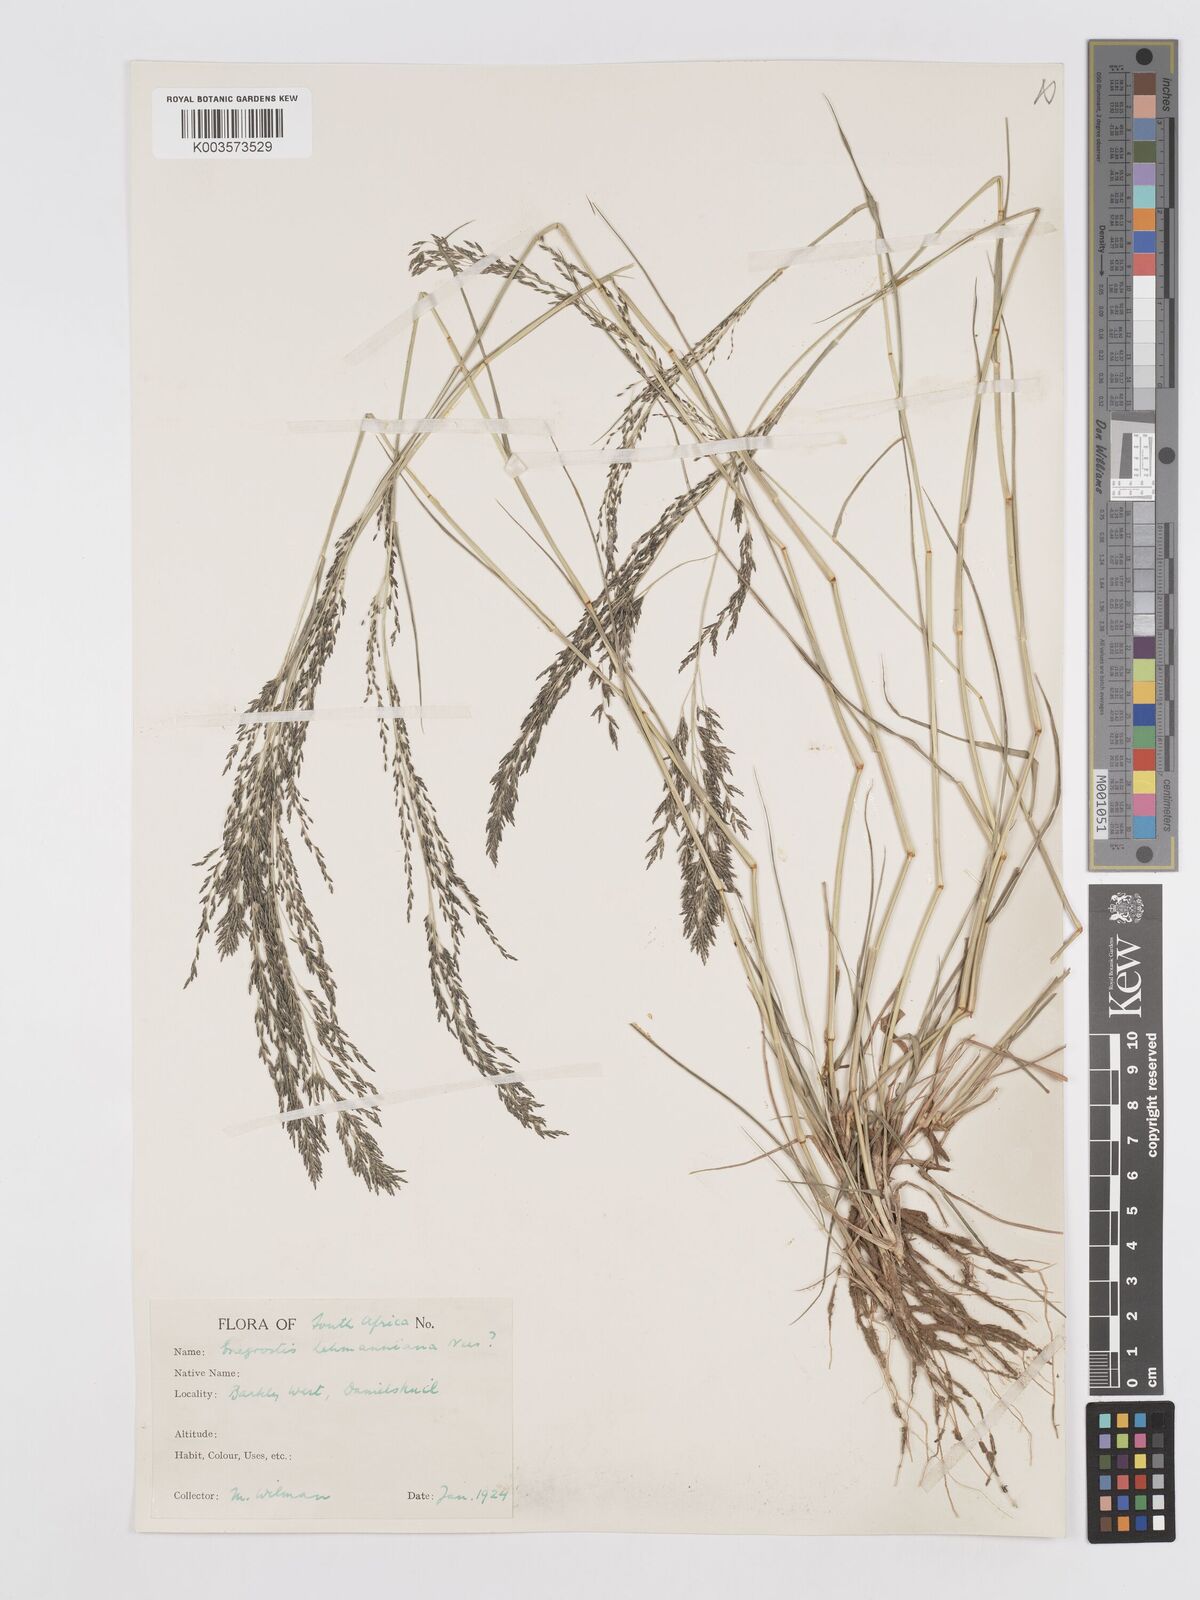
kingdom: Plantae
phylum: Tracheophyta
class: Liliopsida
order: Poales
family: Poaceae
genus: Eragrostis
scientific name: Eragrostis lehmanniana
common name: Lehmann lovegrass
